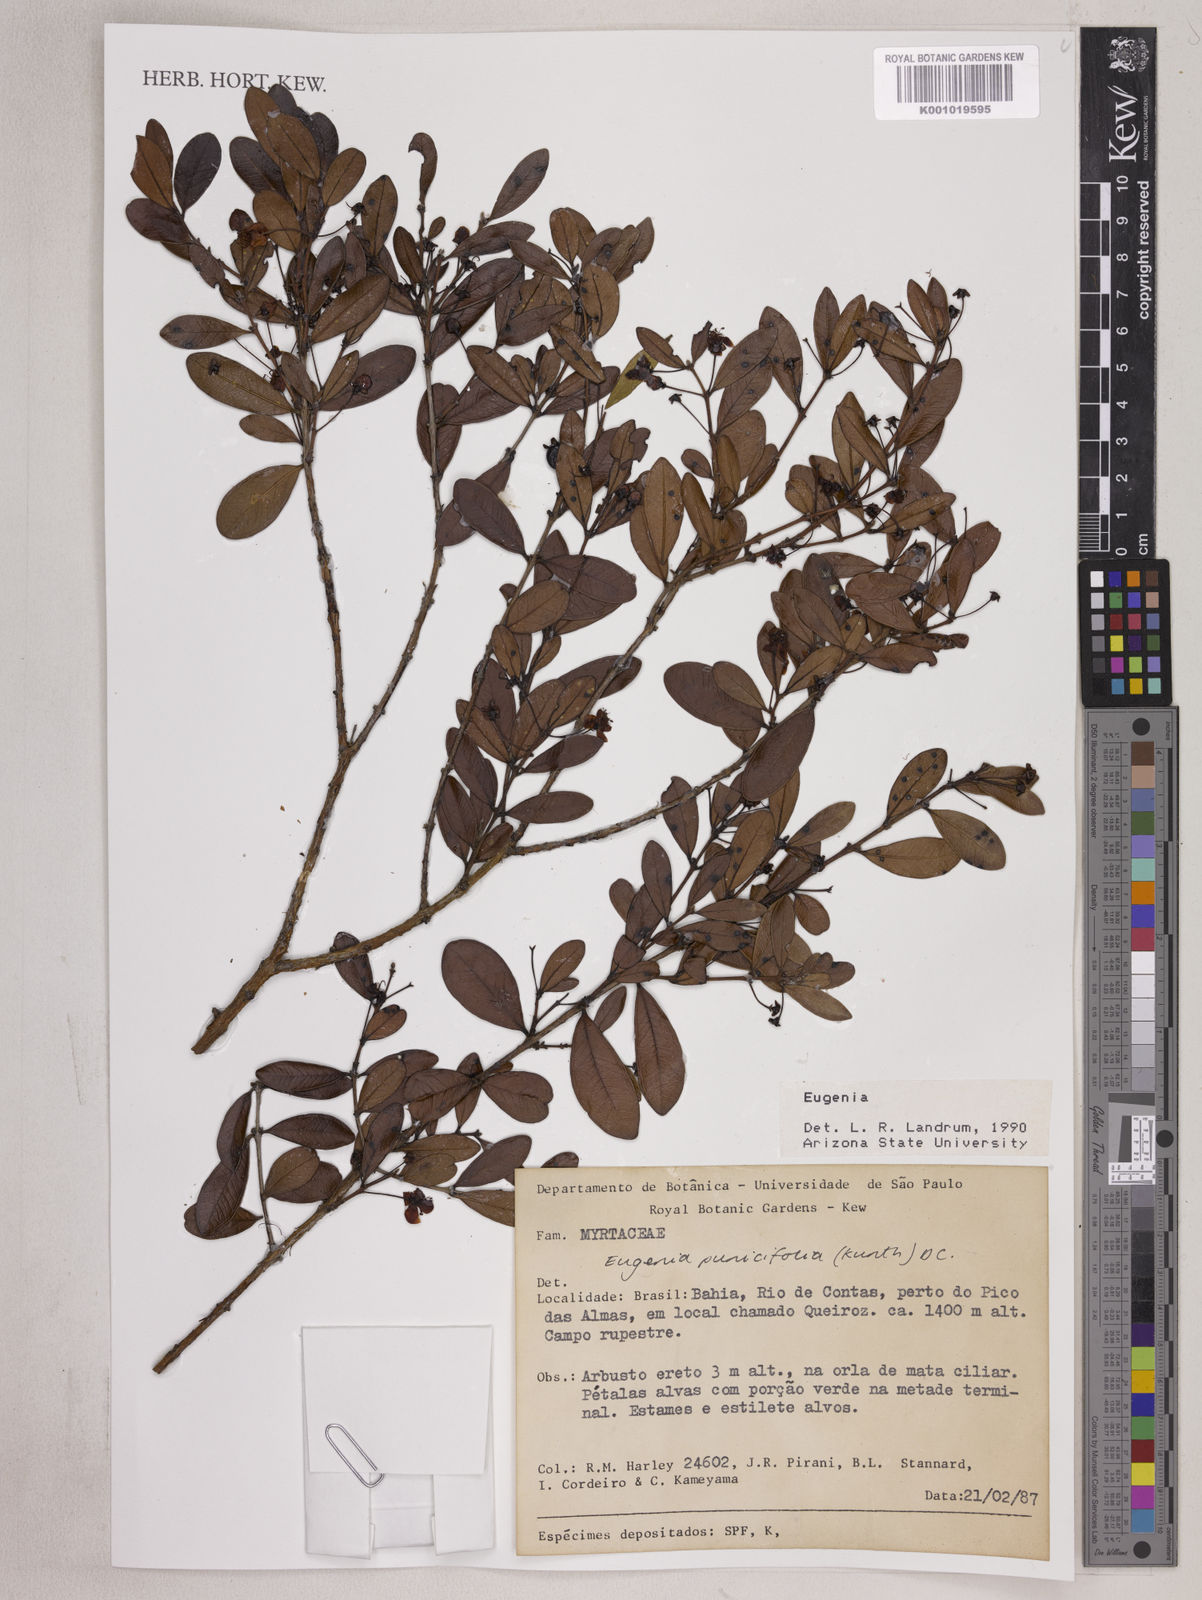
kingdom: Plantae
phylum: Tracheophyta
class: Magnoliopsida
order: Myrtales
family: Myrtaceae
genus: Eugenia
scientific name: Eugenia punicifolia
